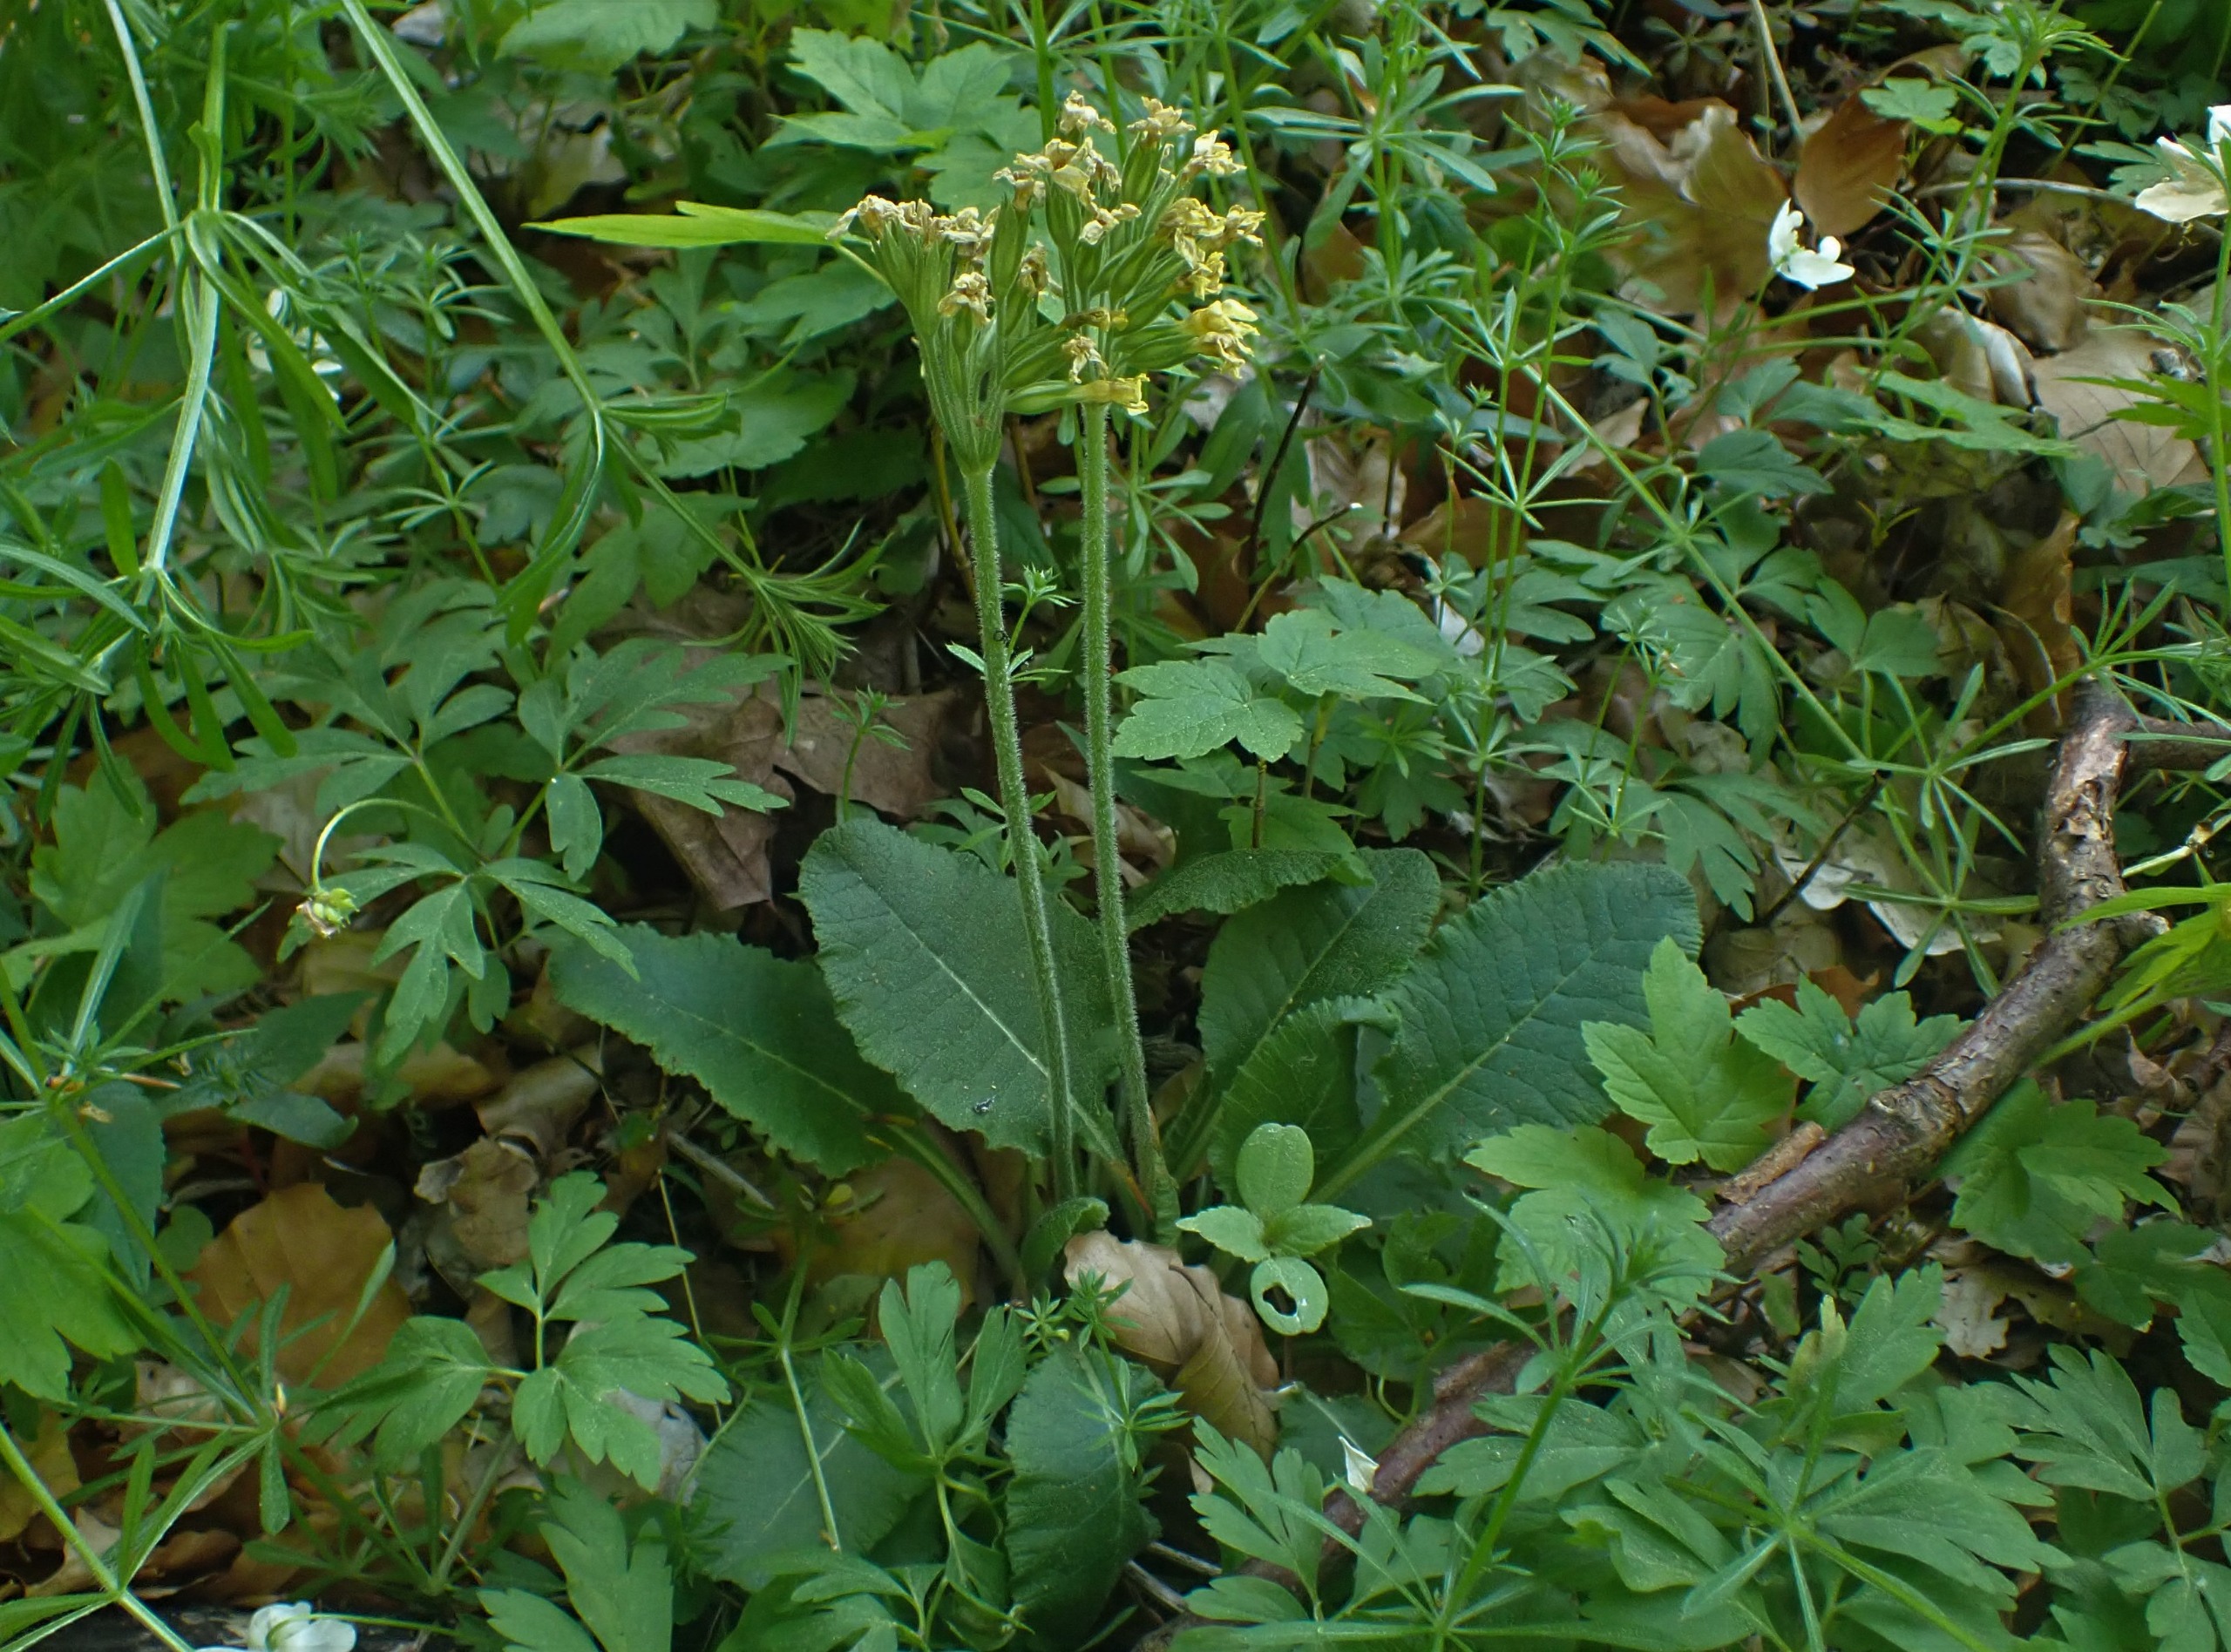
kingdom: Plantae
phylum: Tracheophyta
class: Magnoliopsida
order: Ericales
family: Primulaceae
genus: Primula
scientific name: Primula elatior
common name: Fladkravet kodriver
